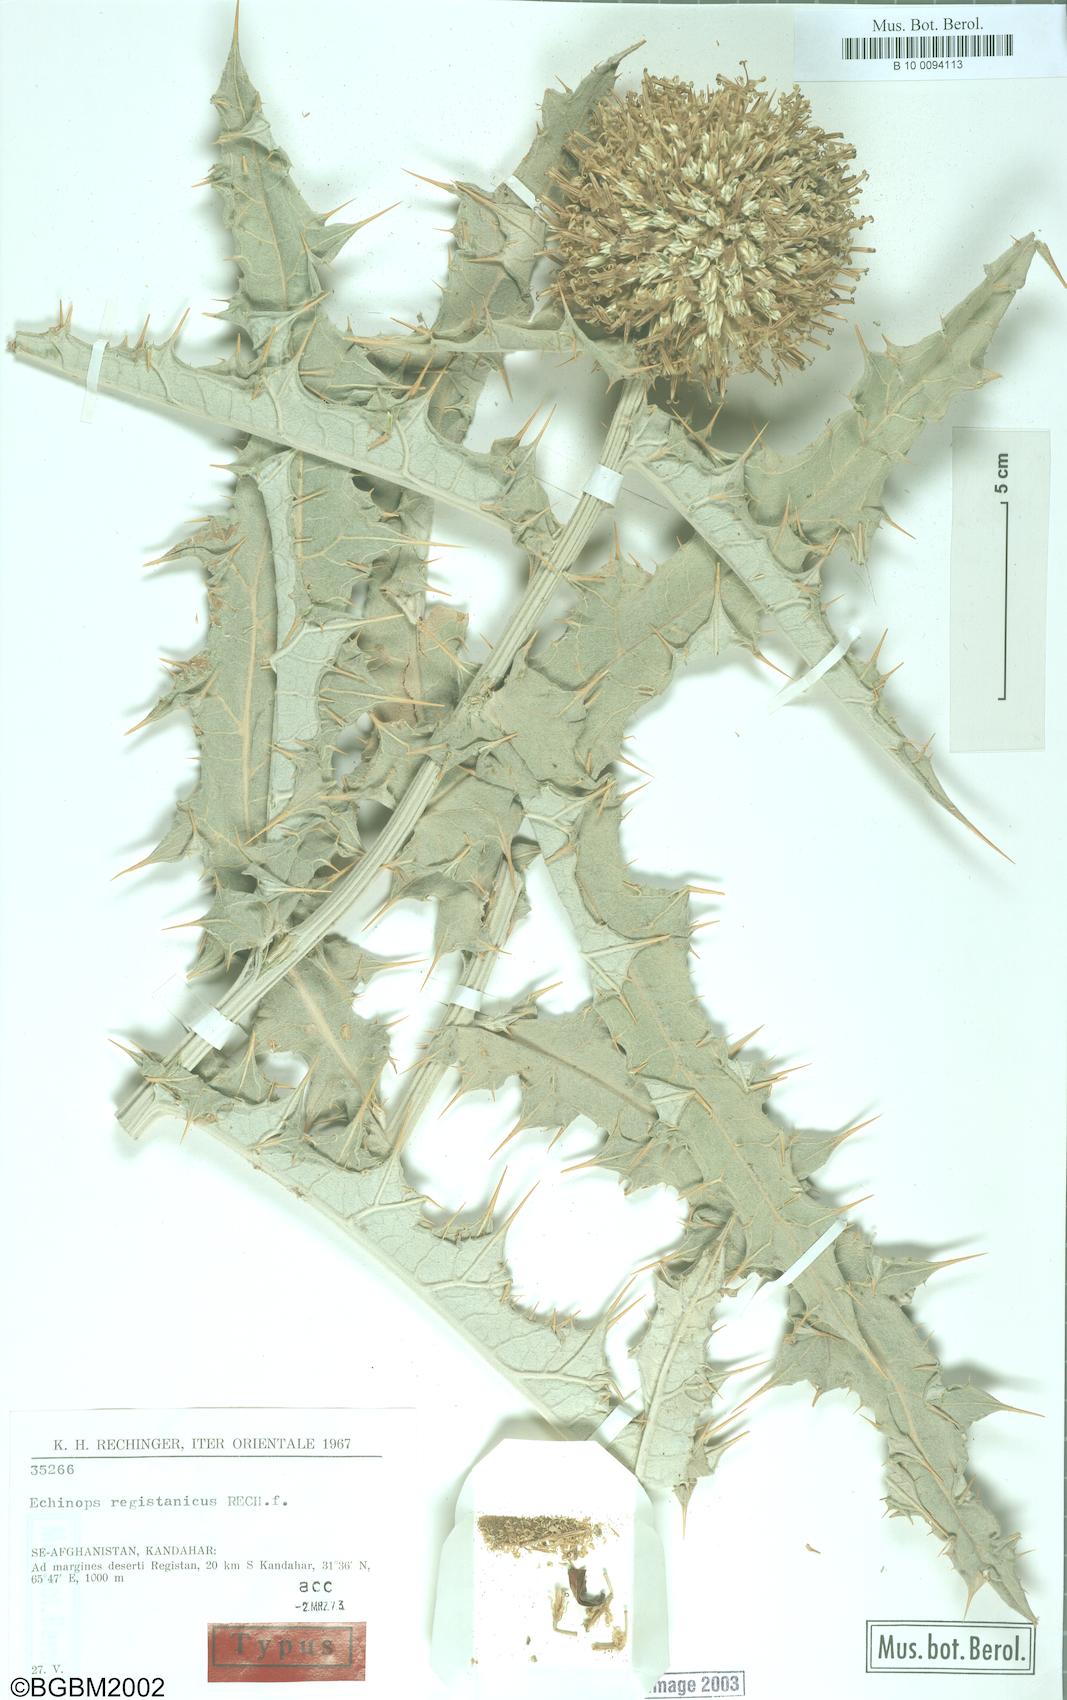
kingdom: Plantae
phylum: Tracheophyta
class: Magnoliopsida
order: Asterales
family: Asteraceae
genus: Echinops
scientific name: Echinops registanicus
